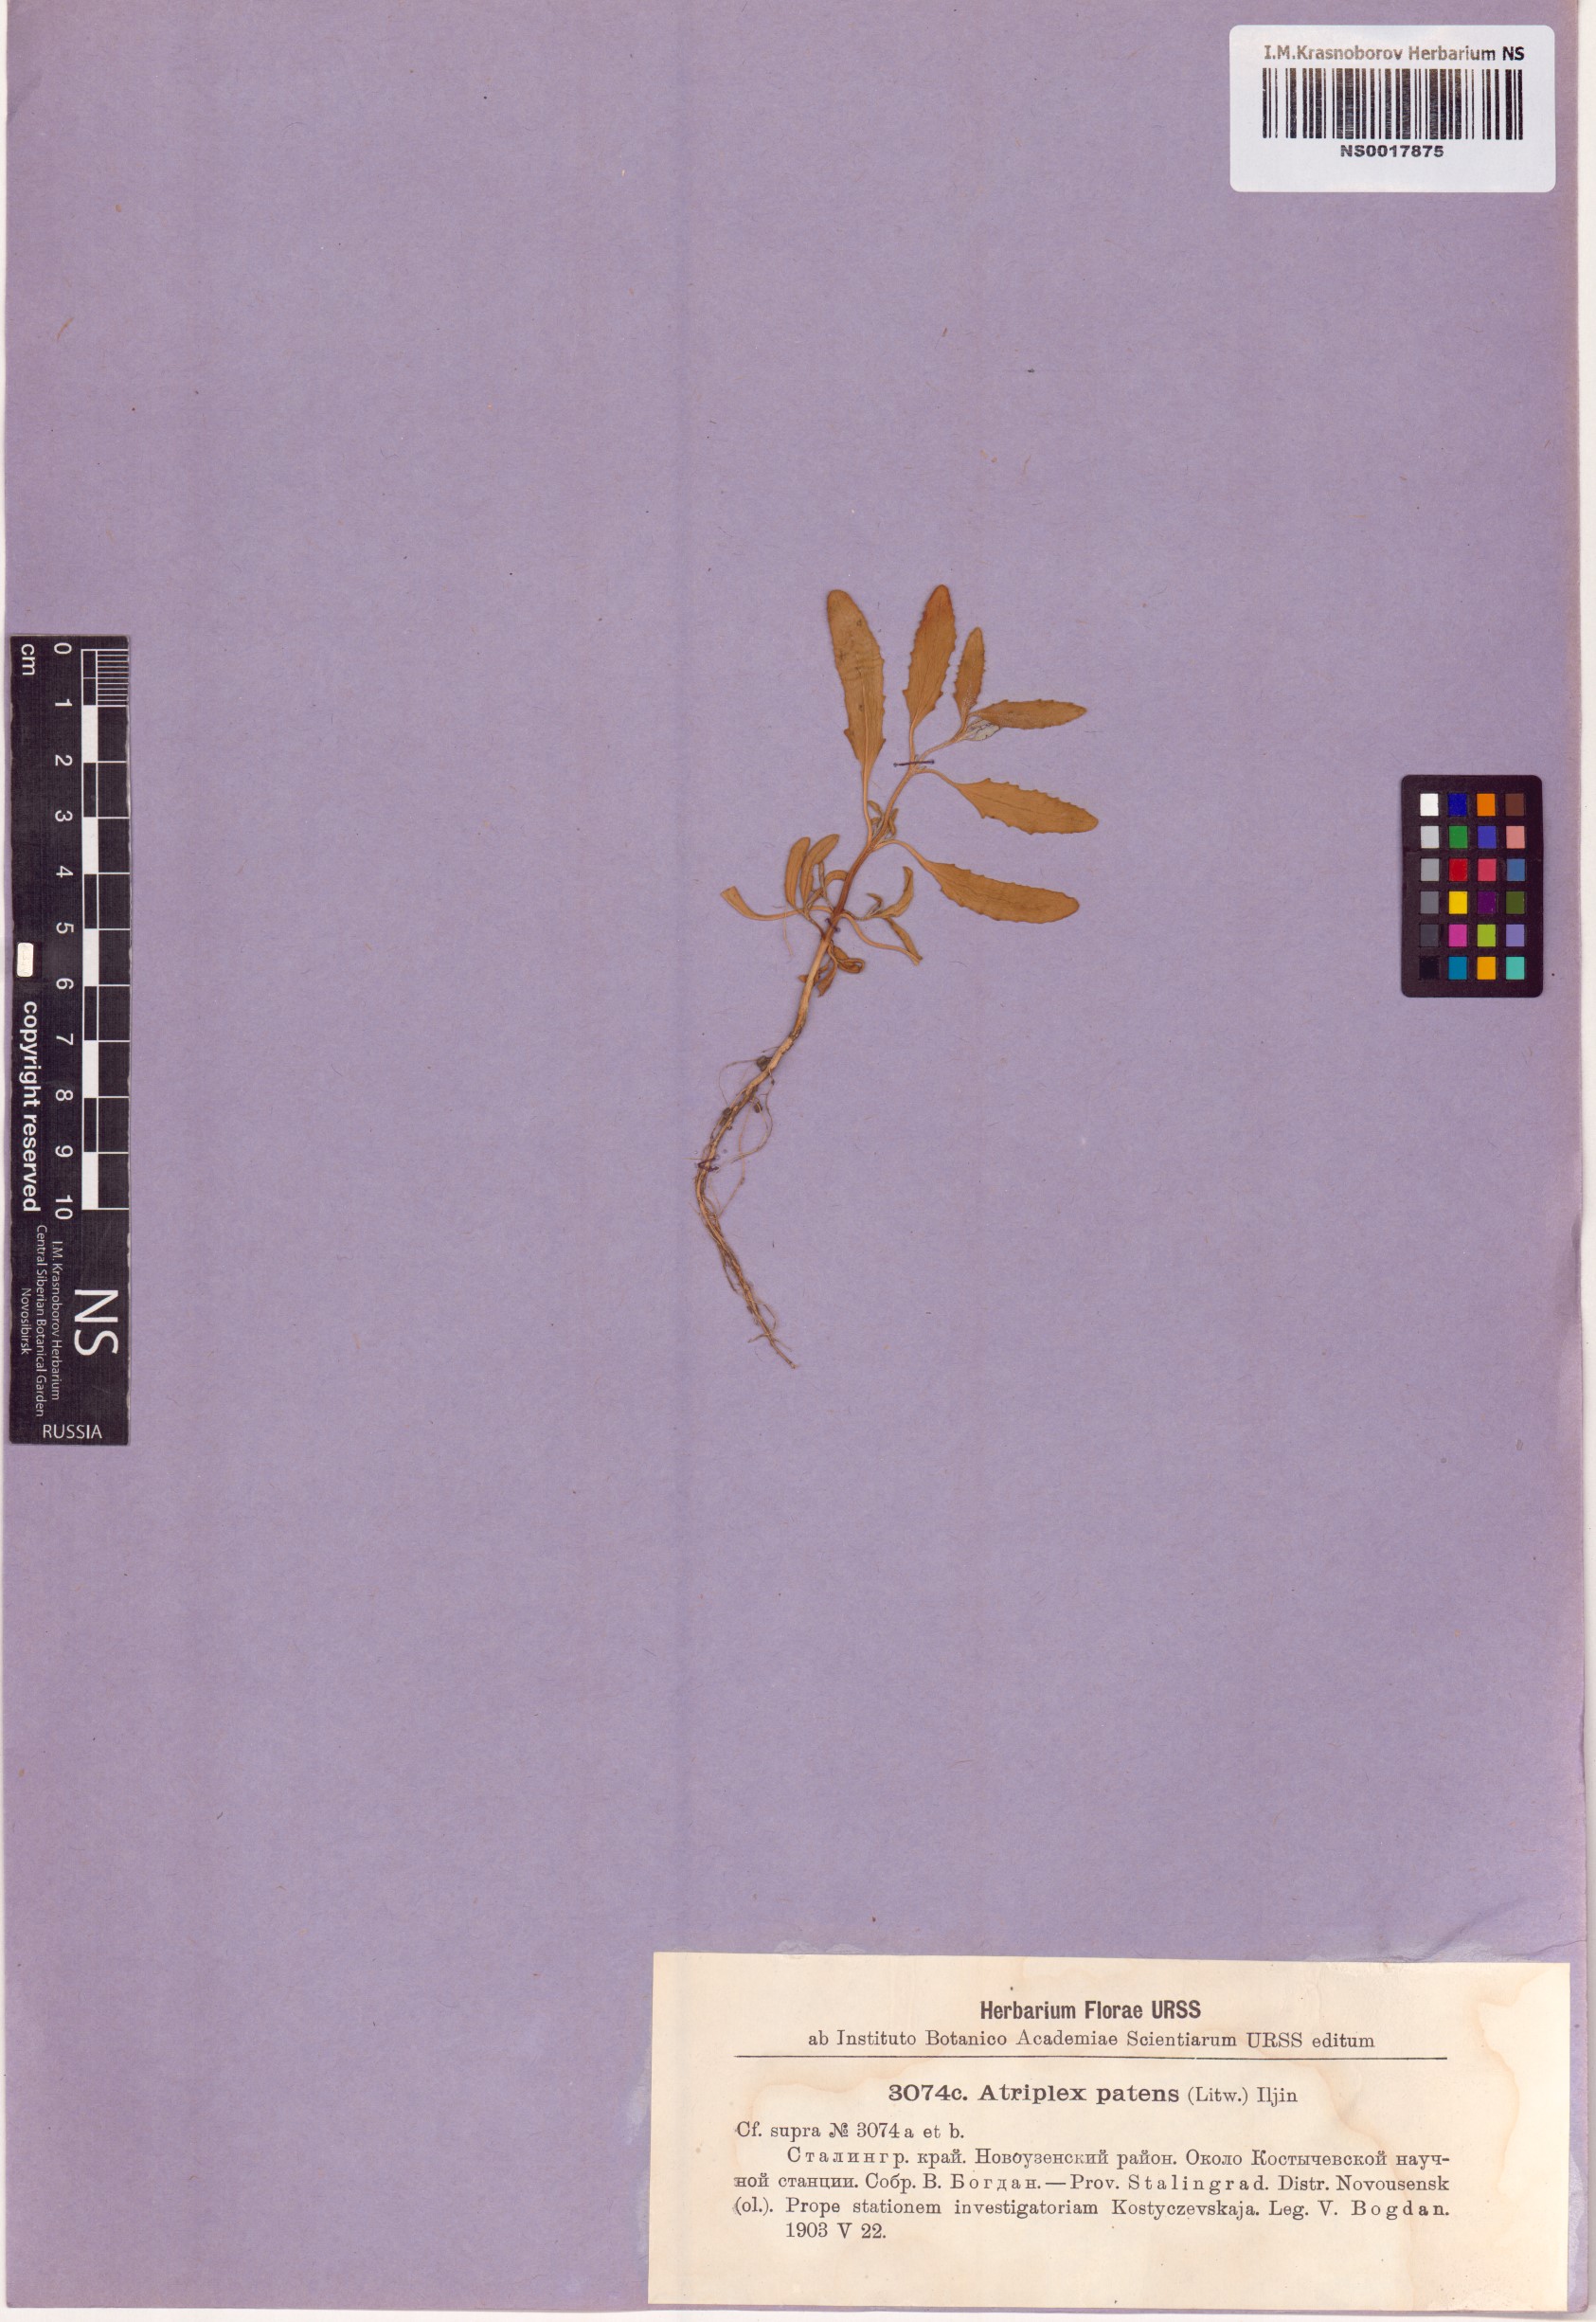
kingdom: Plantae
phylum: Tracheophyta
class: Magnoliopsida
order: Caryophyllales
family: Amaranthaceae
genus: Atriplex
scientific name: Atriplex patens
